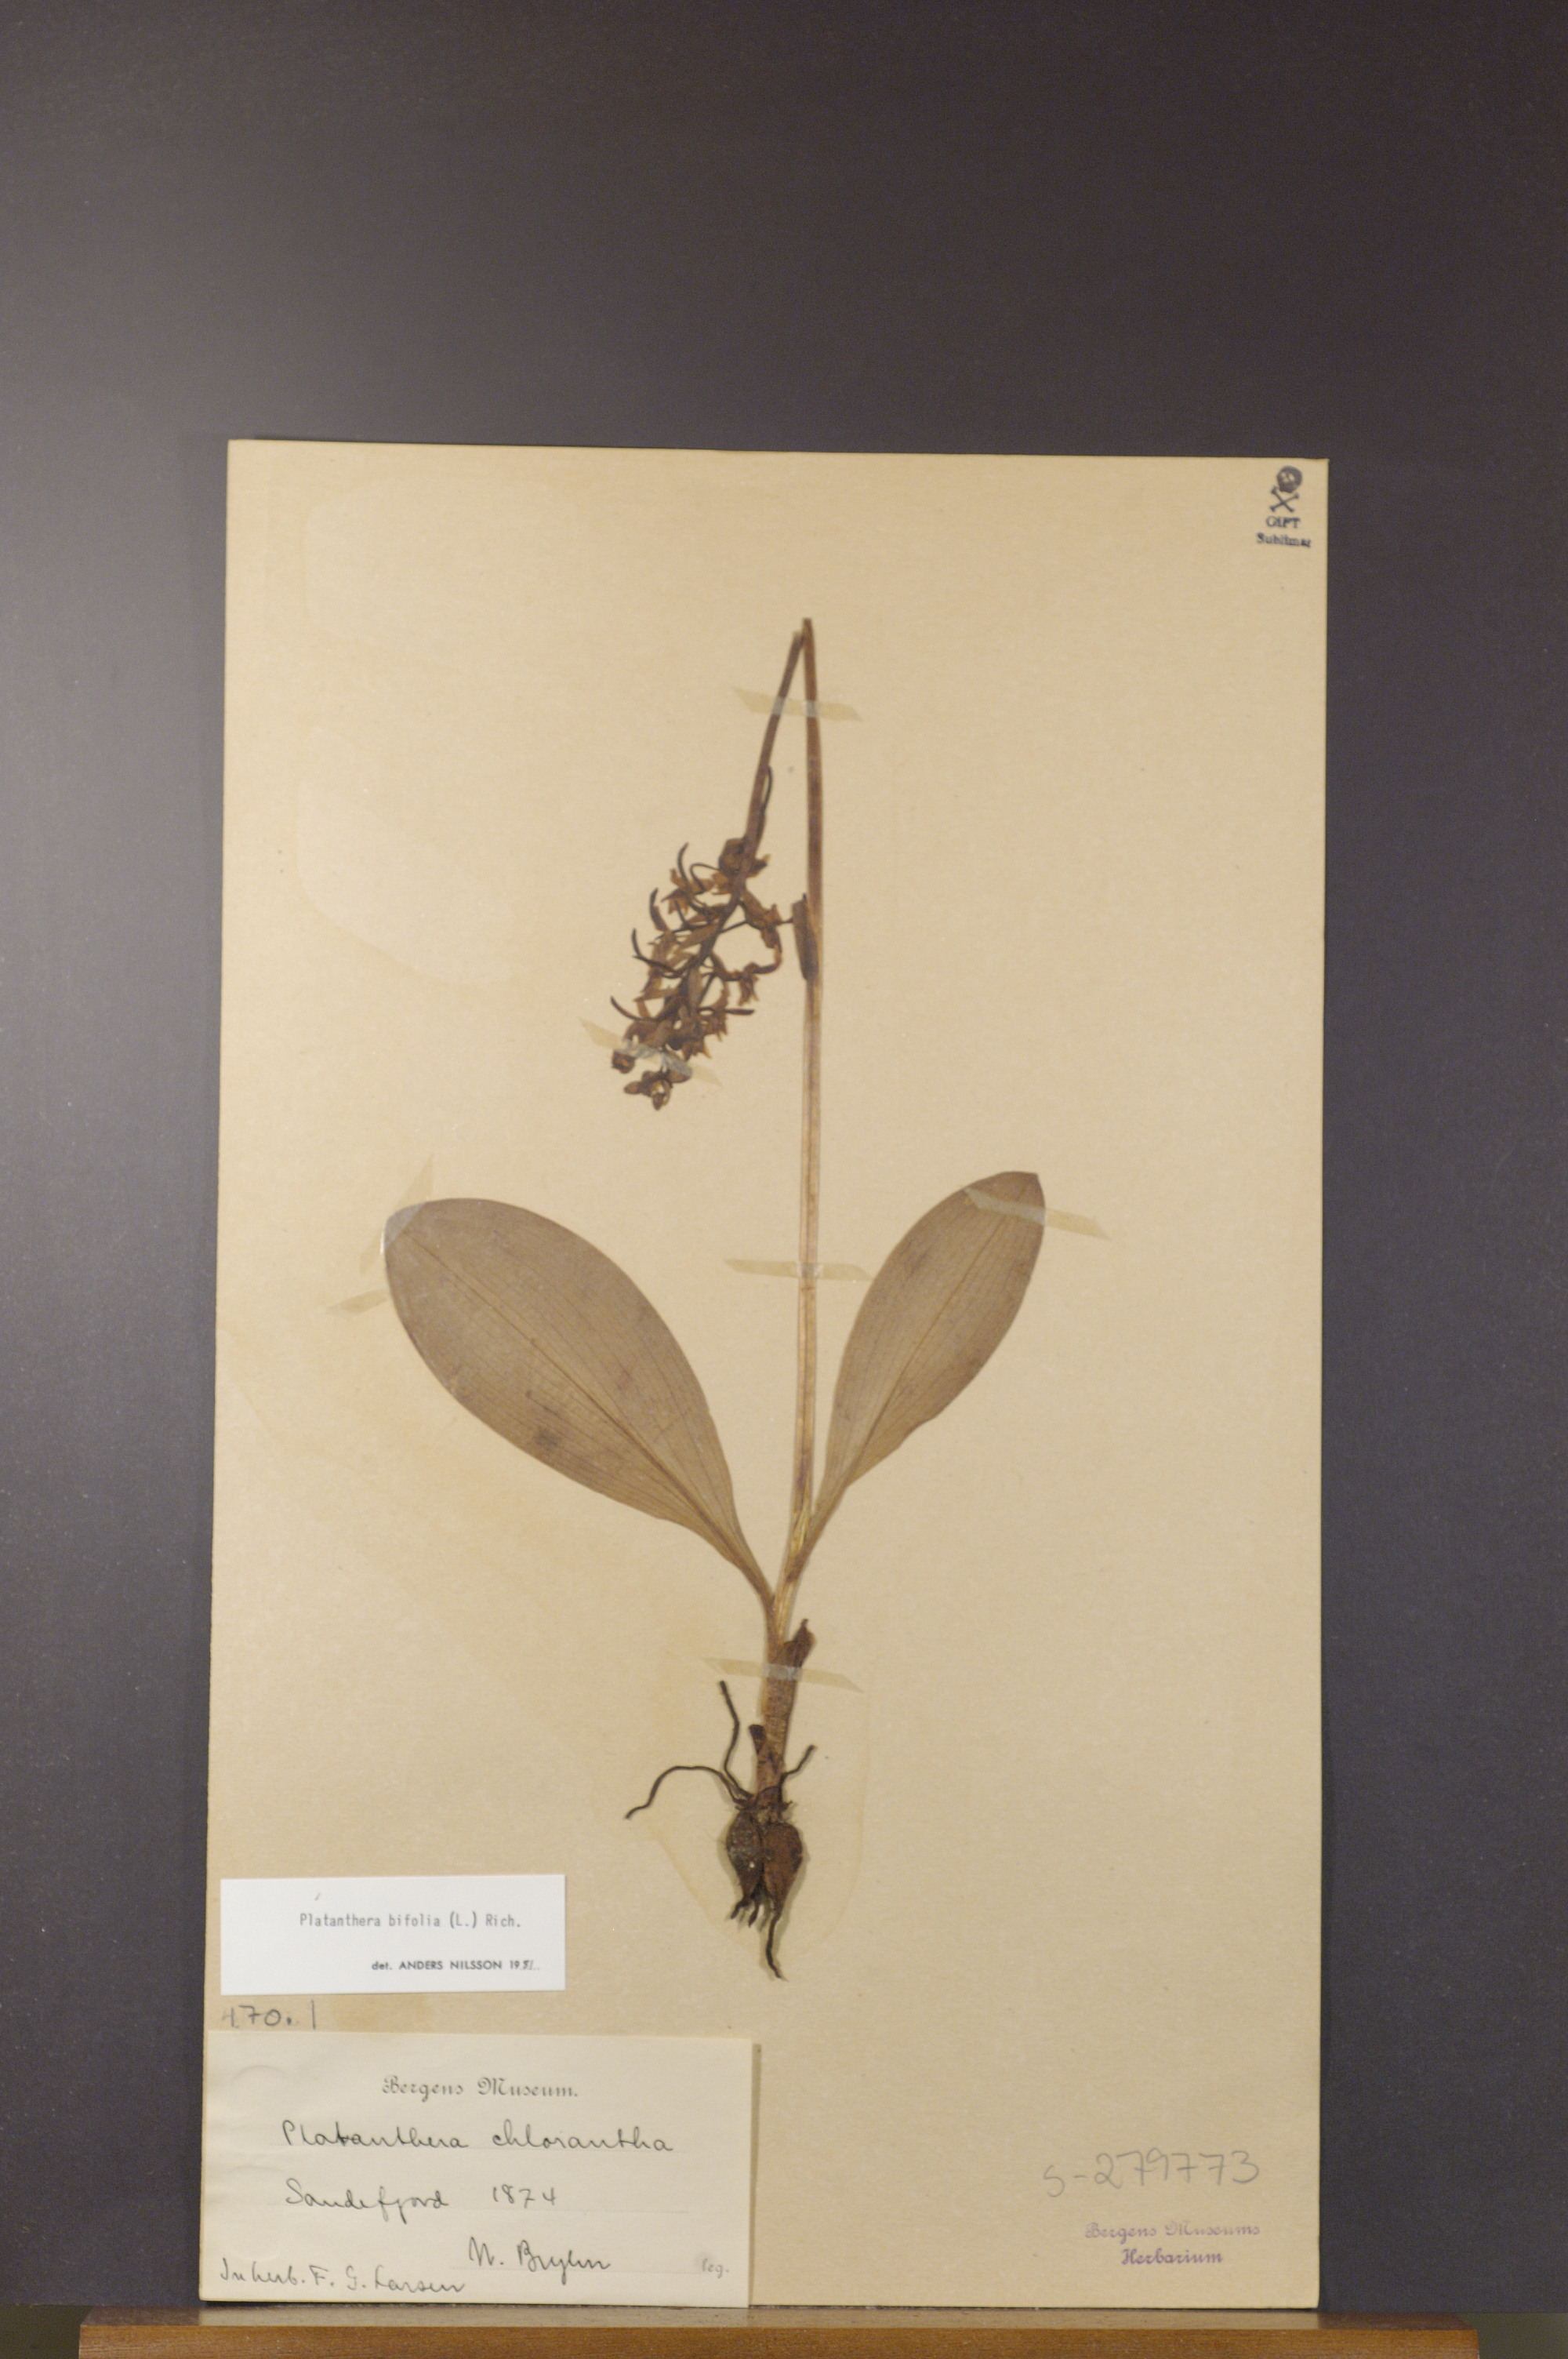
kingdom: Plantae
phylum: Tracheophyta
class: Liliopsida
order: Asparagales
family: Orchidaceae
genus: Platanthera
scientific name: Platanthera bifolia
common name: Lesser butterfly-orchid
